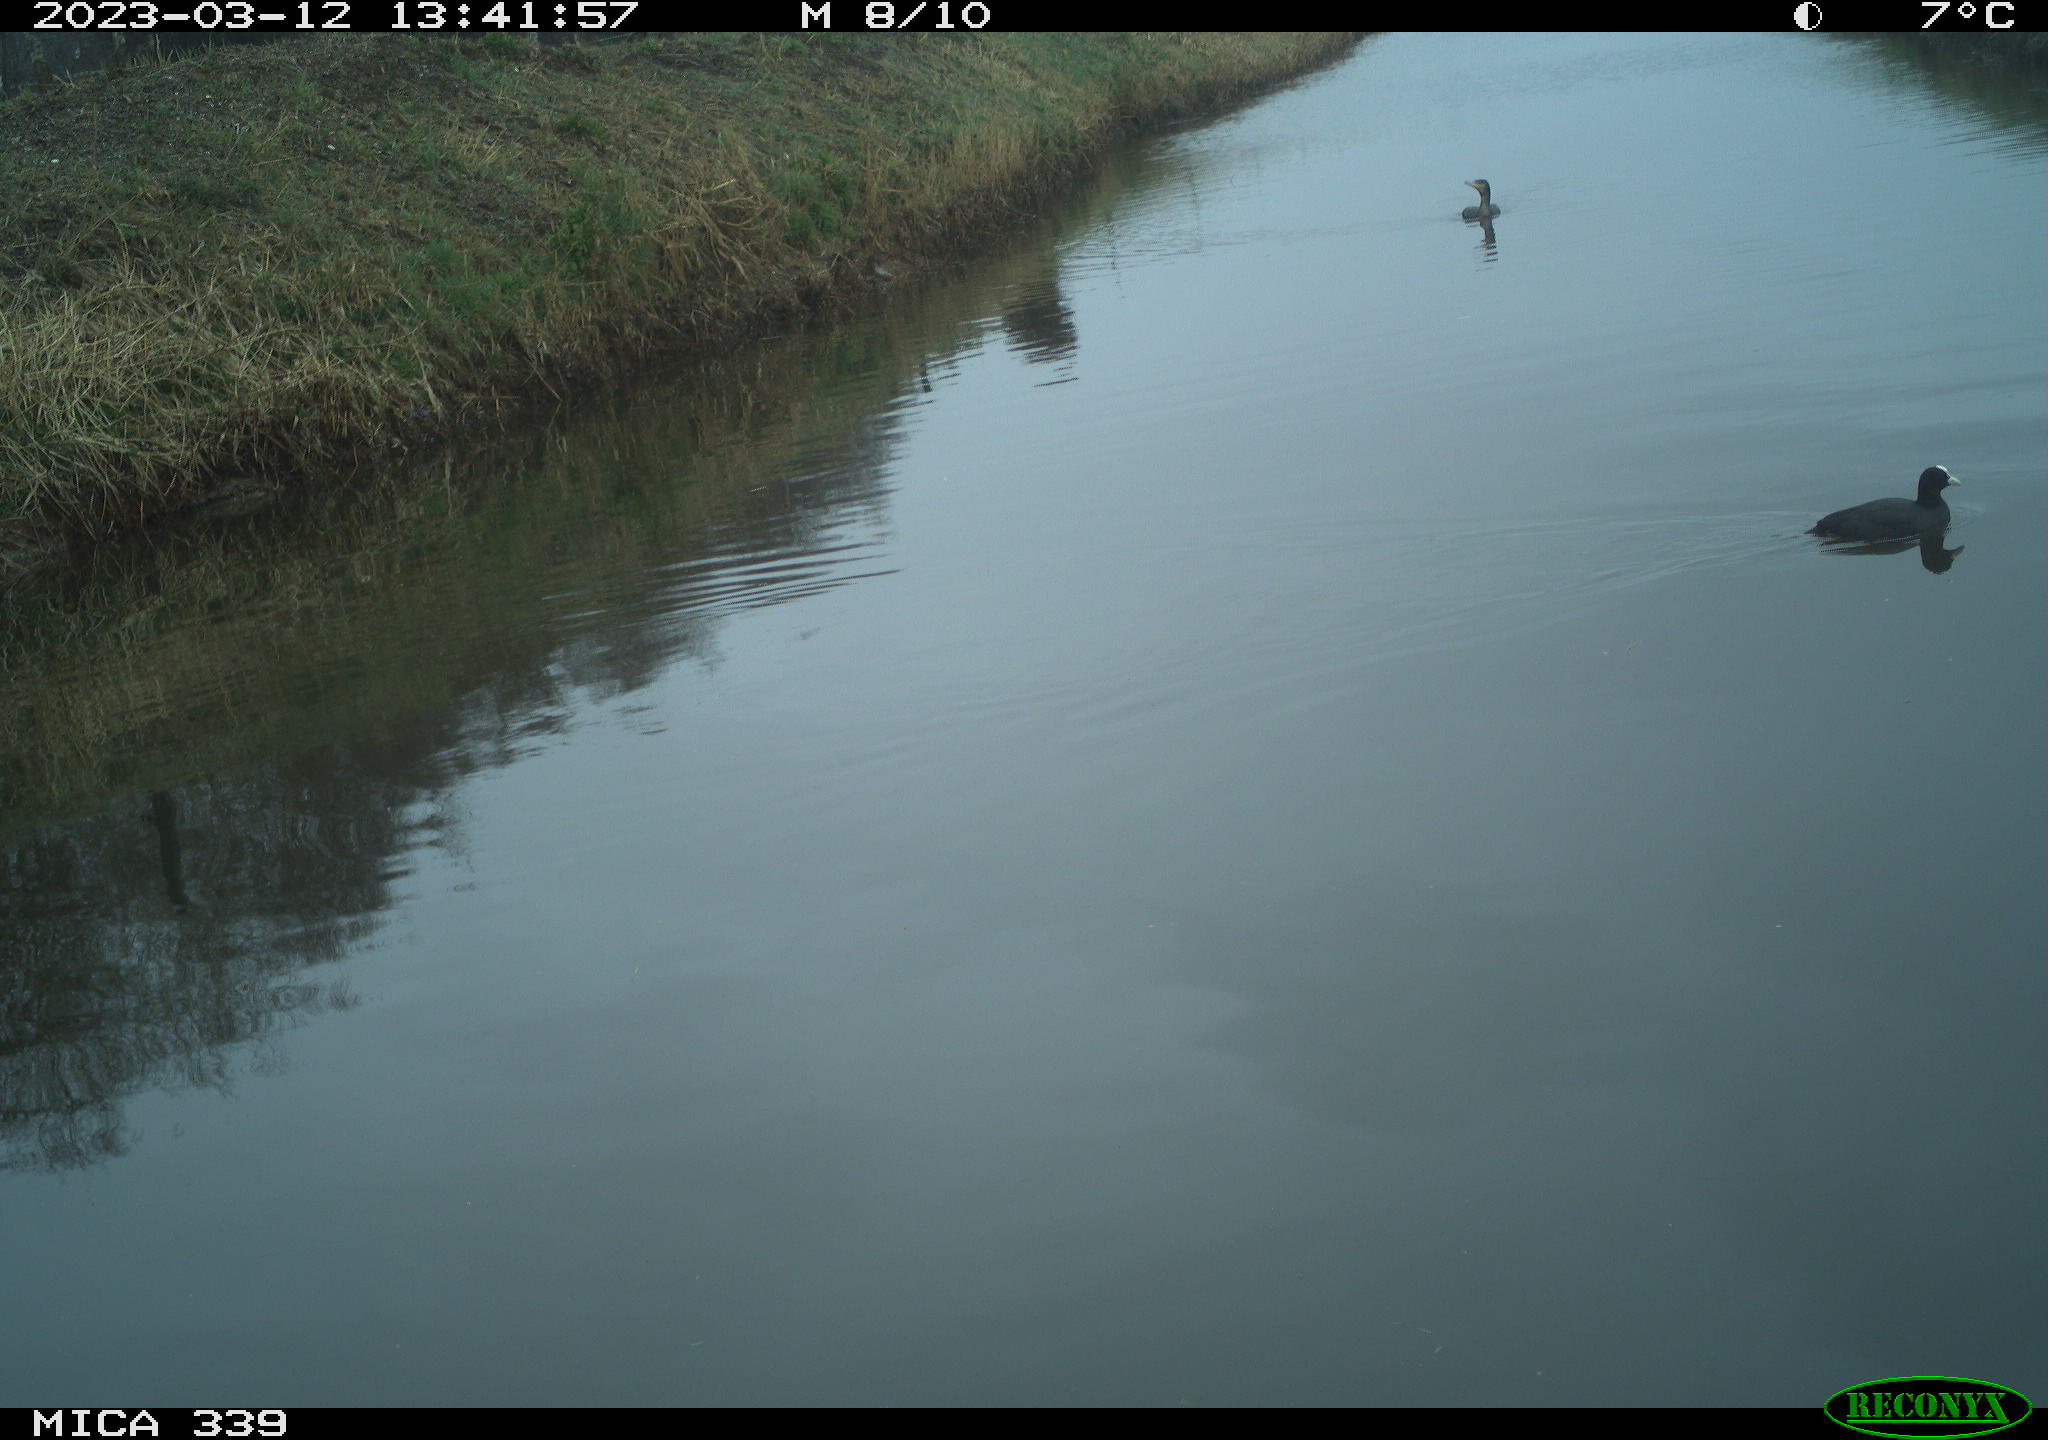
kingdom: Animalia
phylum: Chordata
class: Aves
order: Gruiformes
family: Rallidae
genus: Gallinula
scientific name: Gallinula chloropus
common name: Common moorhen
